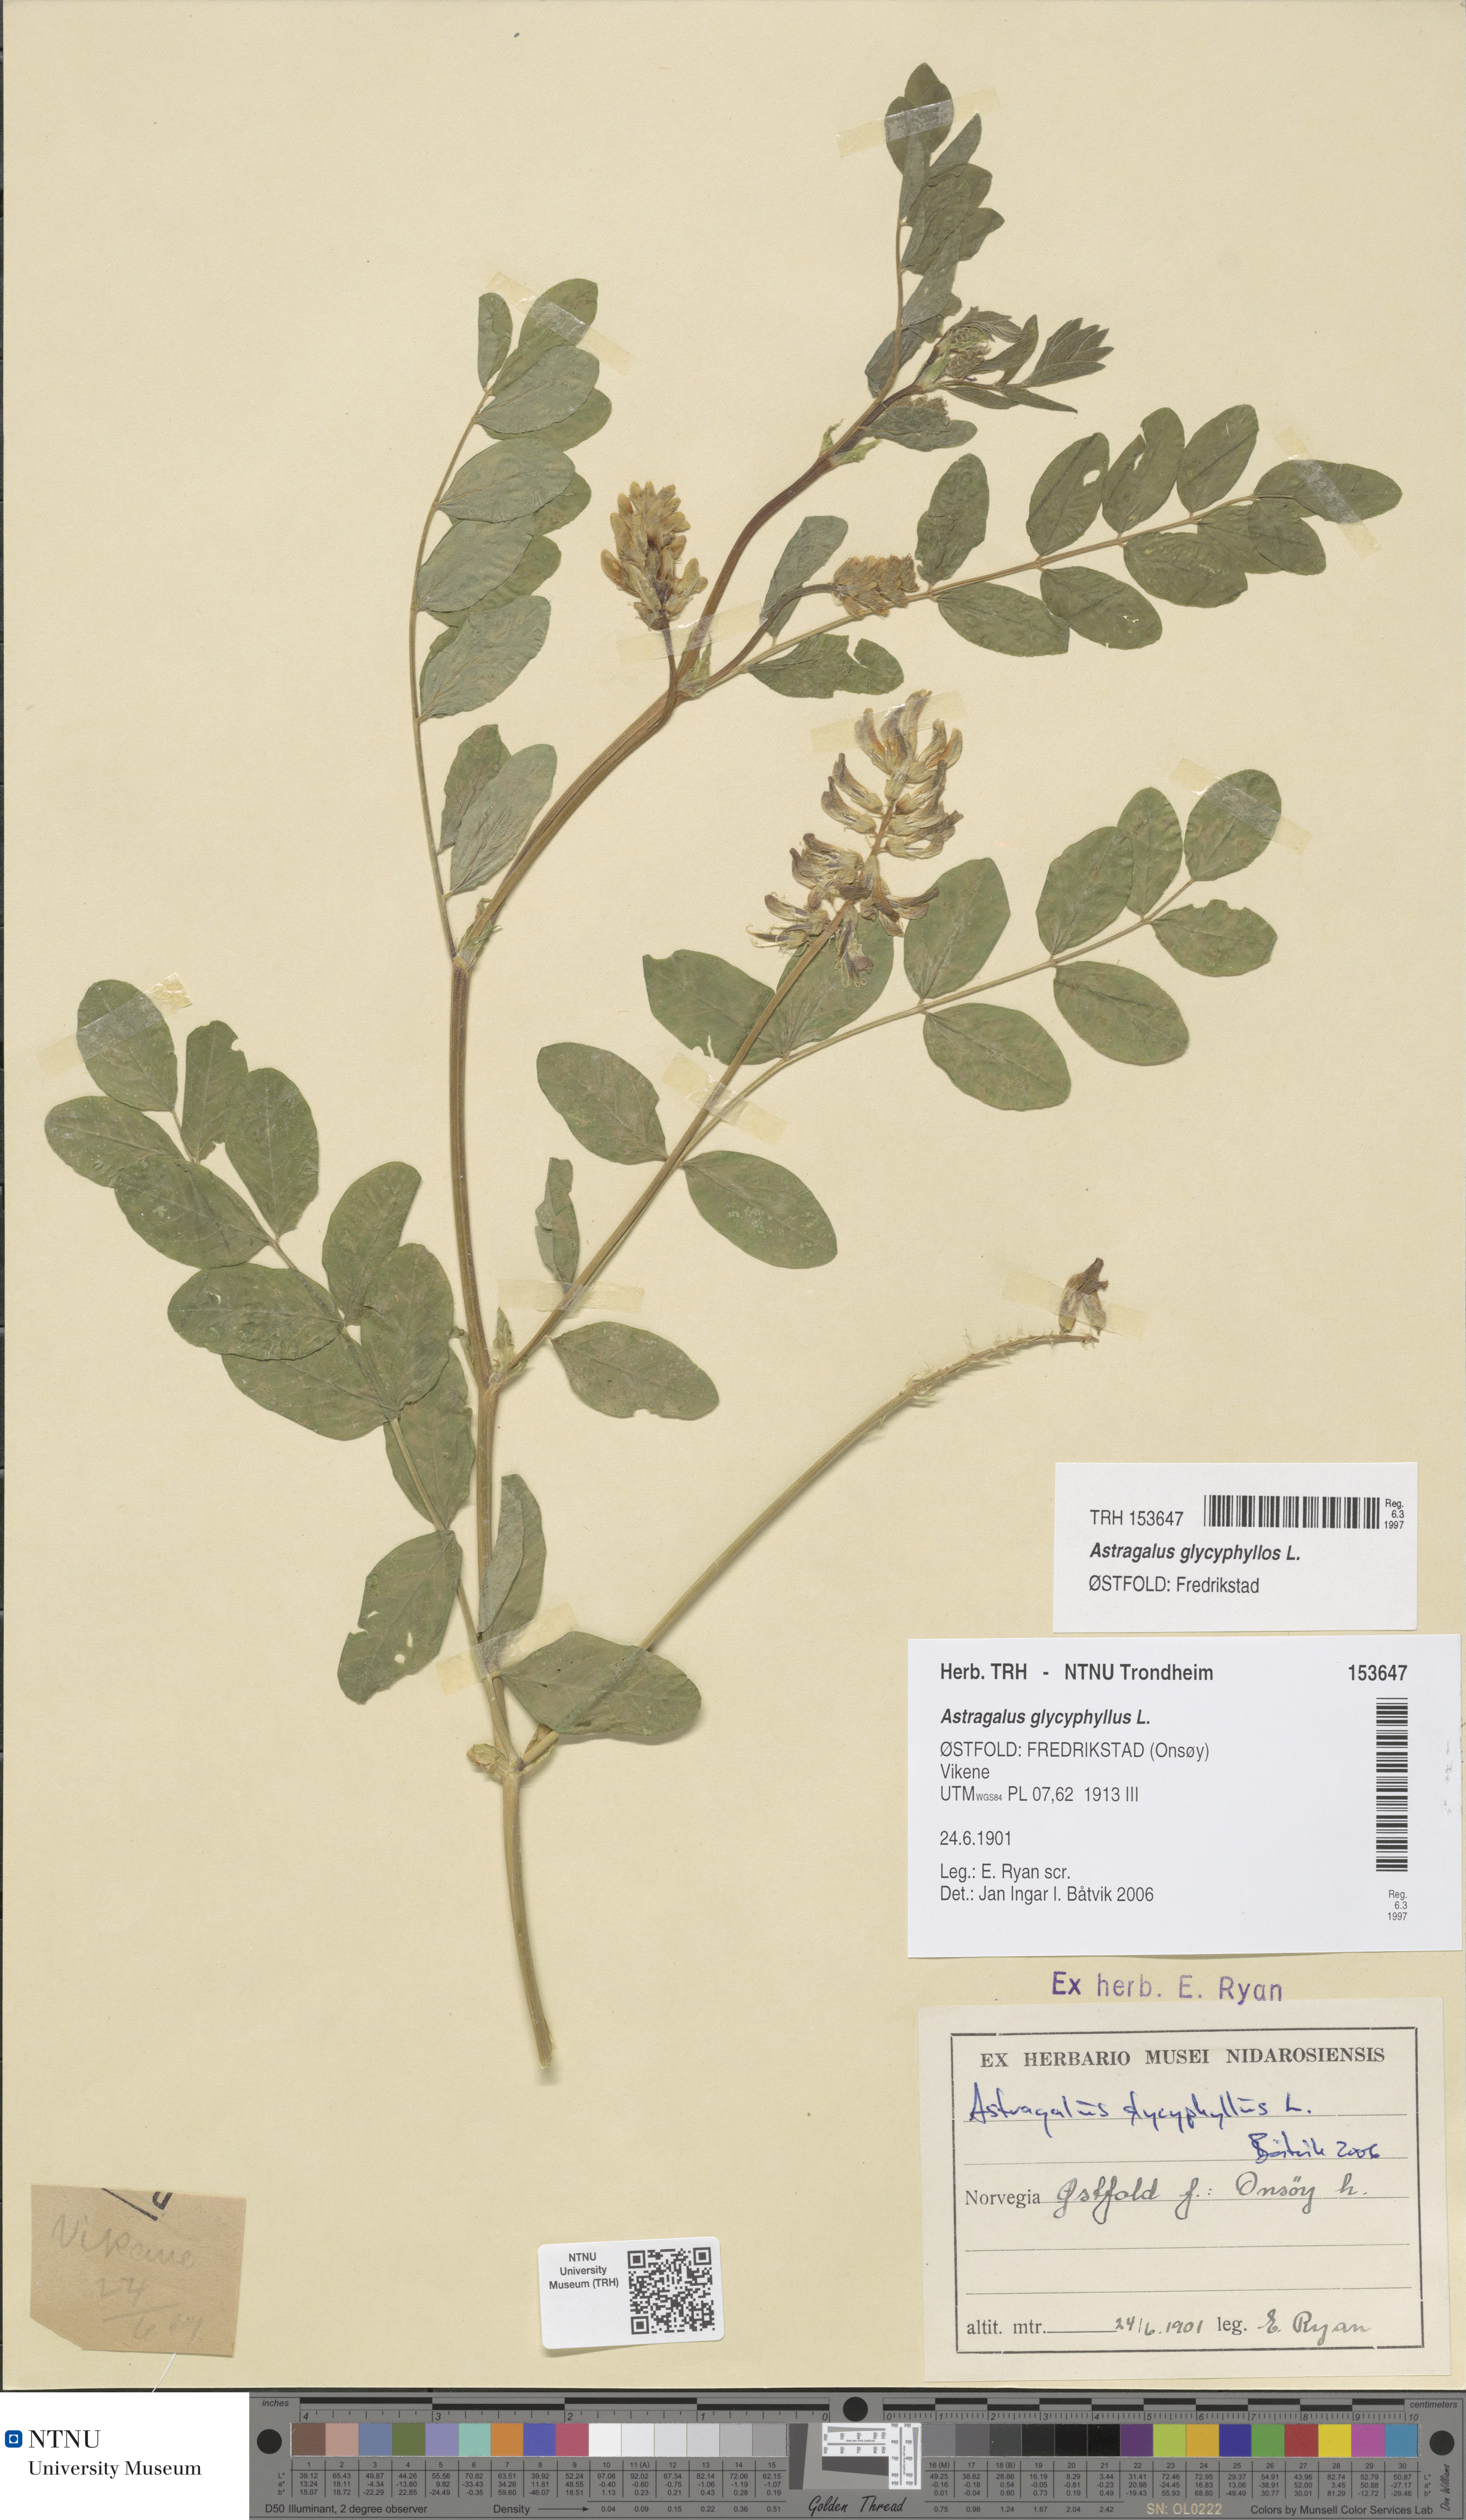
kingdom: Plantae
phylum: Tracheophyta
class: Magnoliopsida
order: Fabales
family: Fabaceae
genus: Astragalus
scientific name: Astragalus glycyphyllos
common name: Wild liquorice
